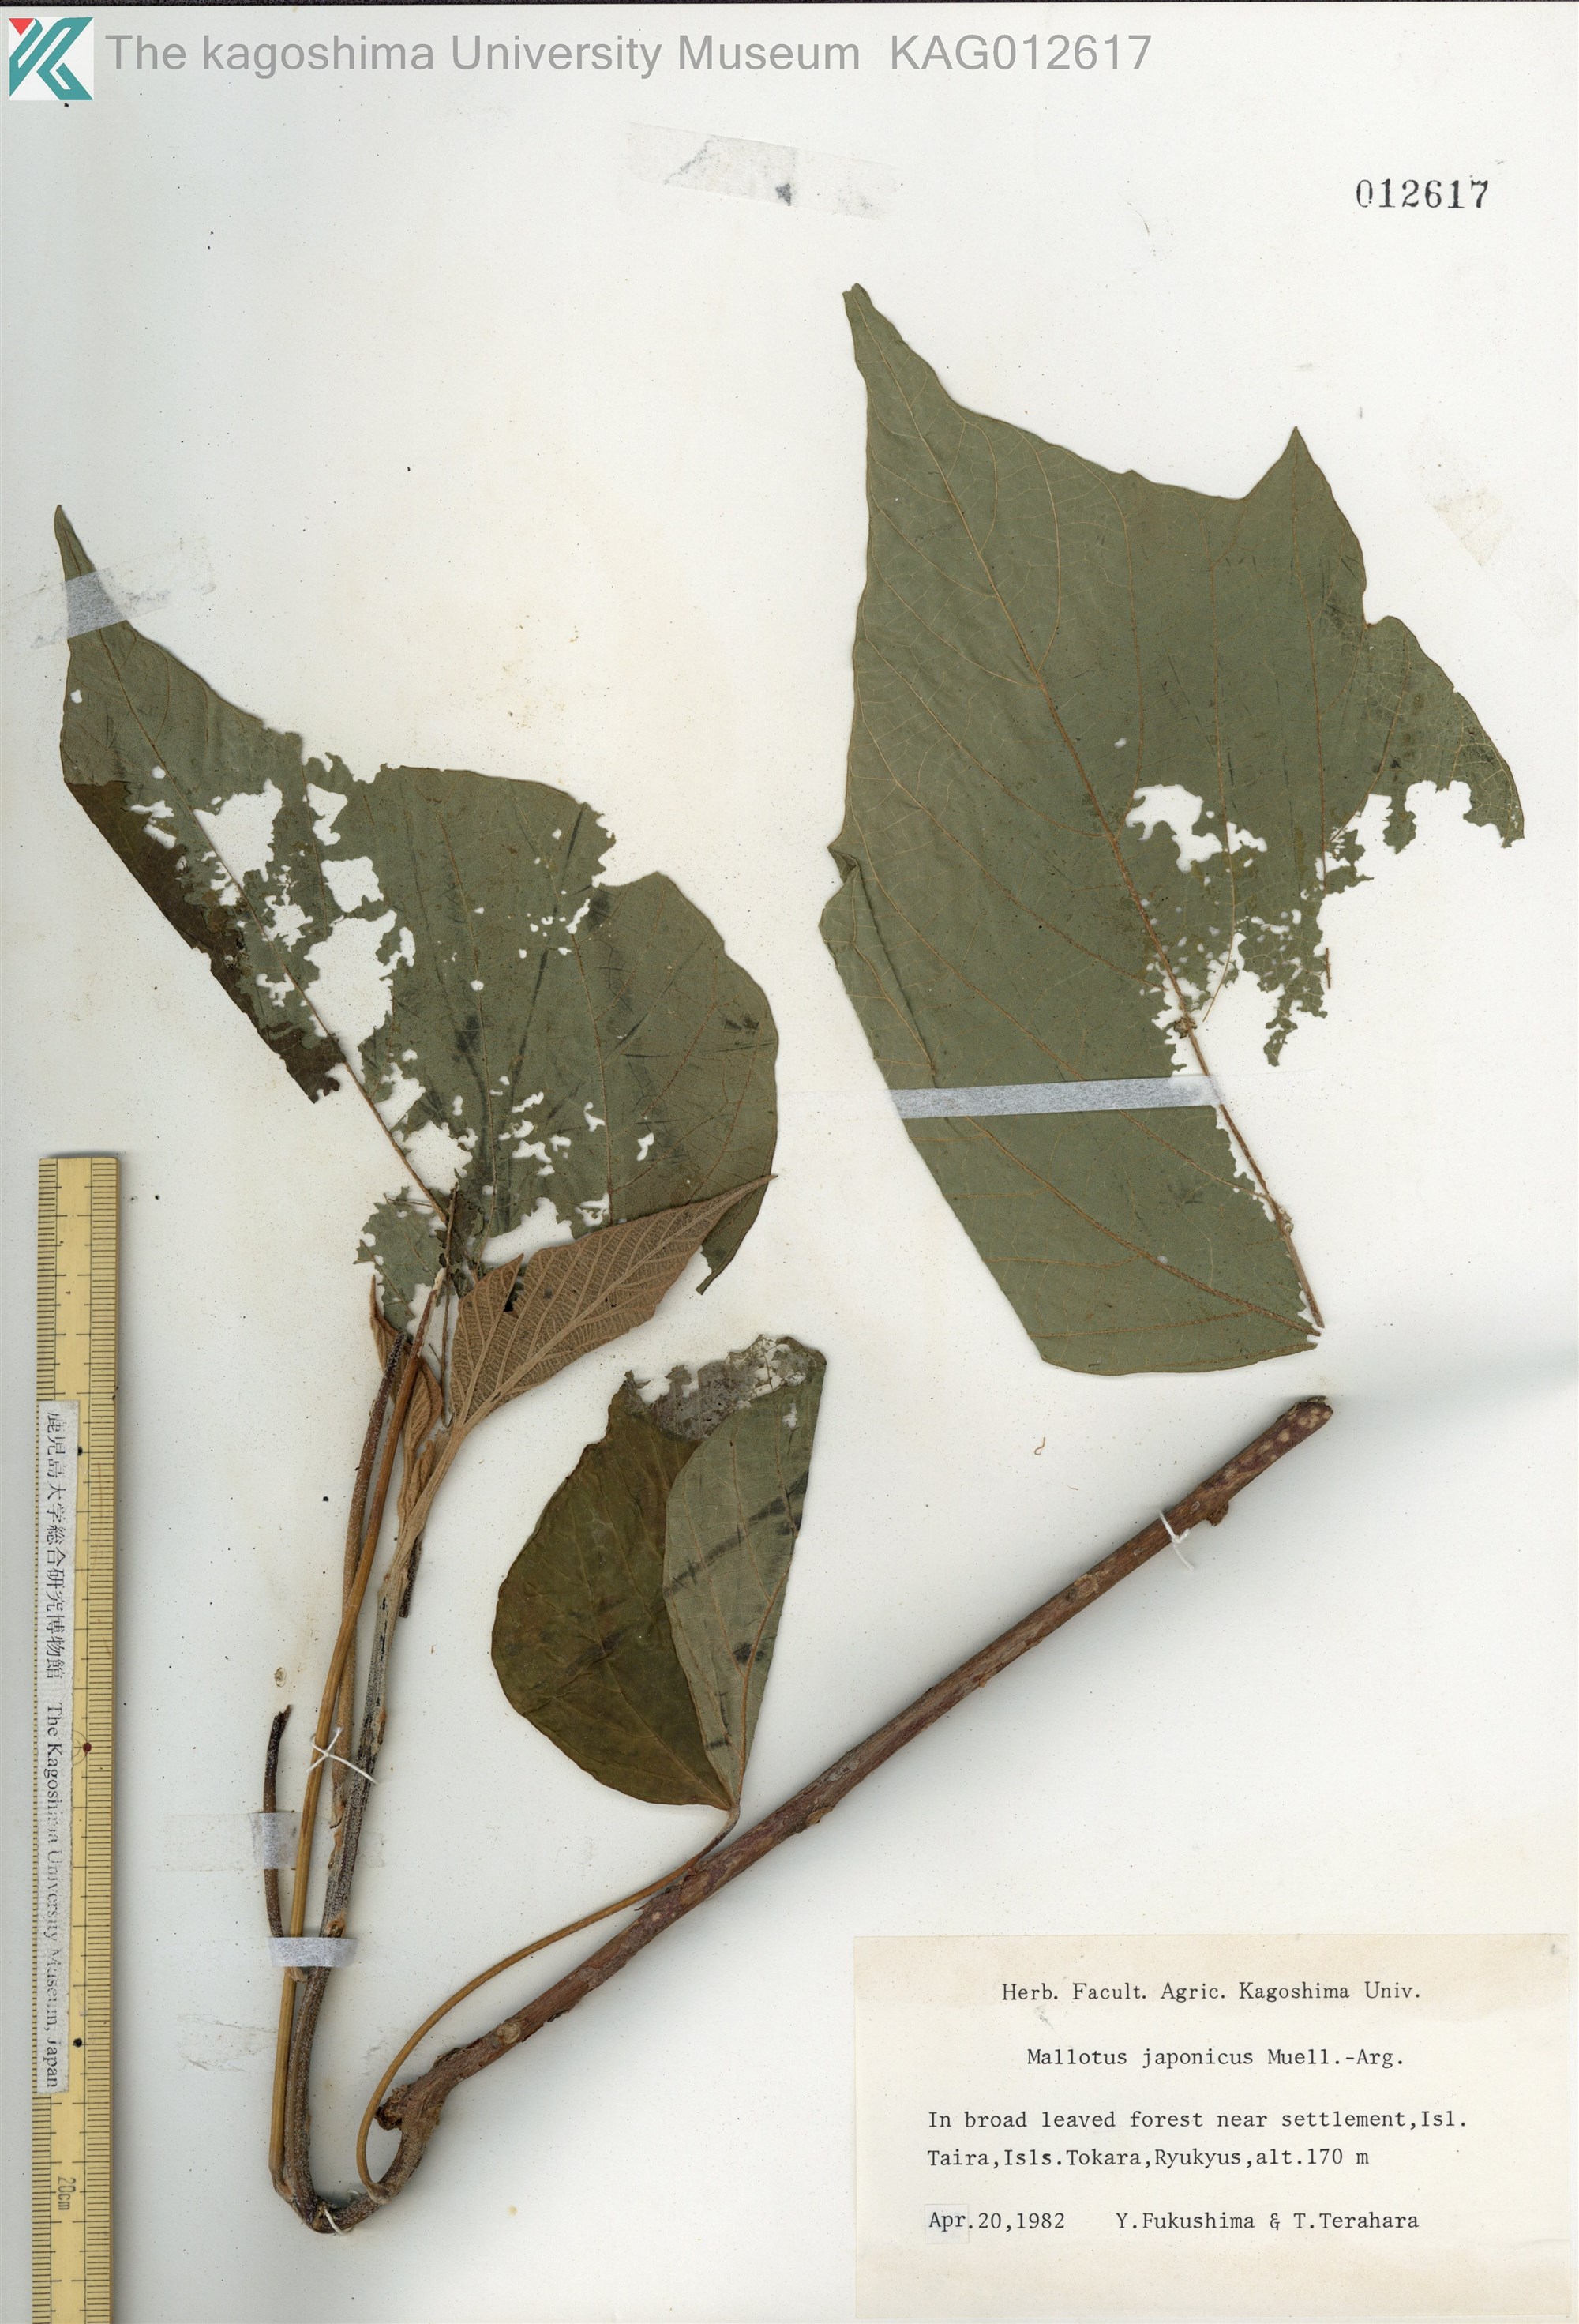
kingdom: Plantae
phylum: Tracheophyta
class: Magnoliopsida
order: Malpighiales
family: Euphorbiaceae
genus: Mallotus
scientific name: Mallotus japonicus
